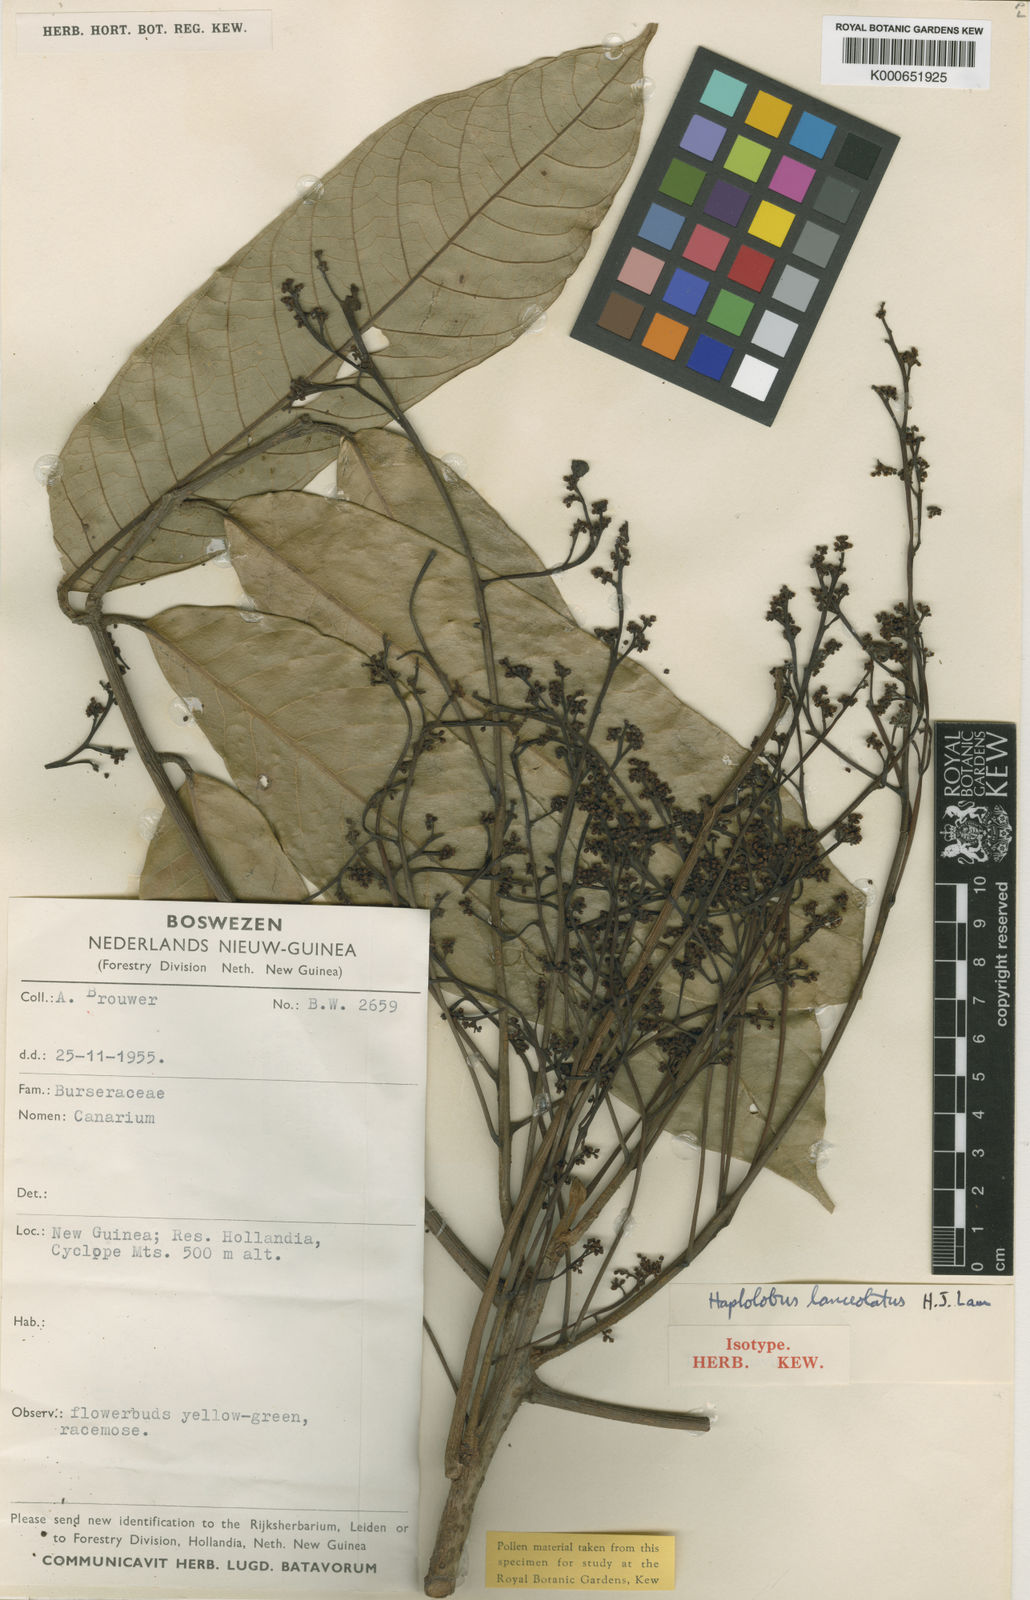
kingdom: Plantae
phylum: Tracheophyta
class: Magnoliopsida
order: Sapindales
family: Burseraceae
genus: Haplolobus
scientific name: Haplolobus lanceolatus
